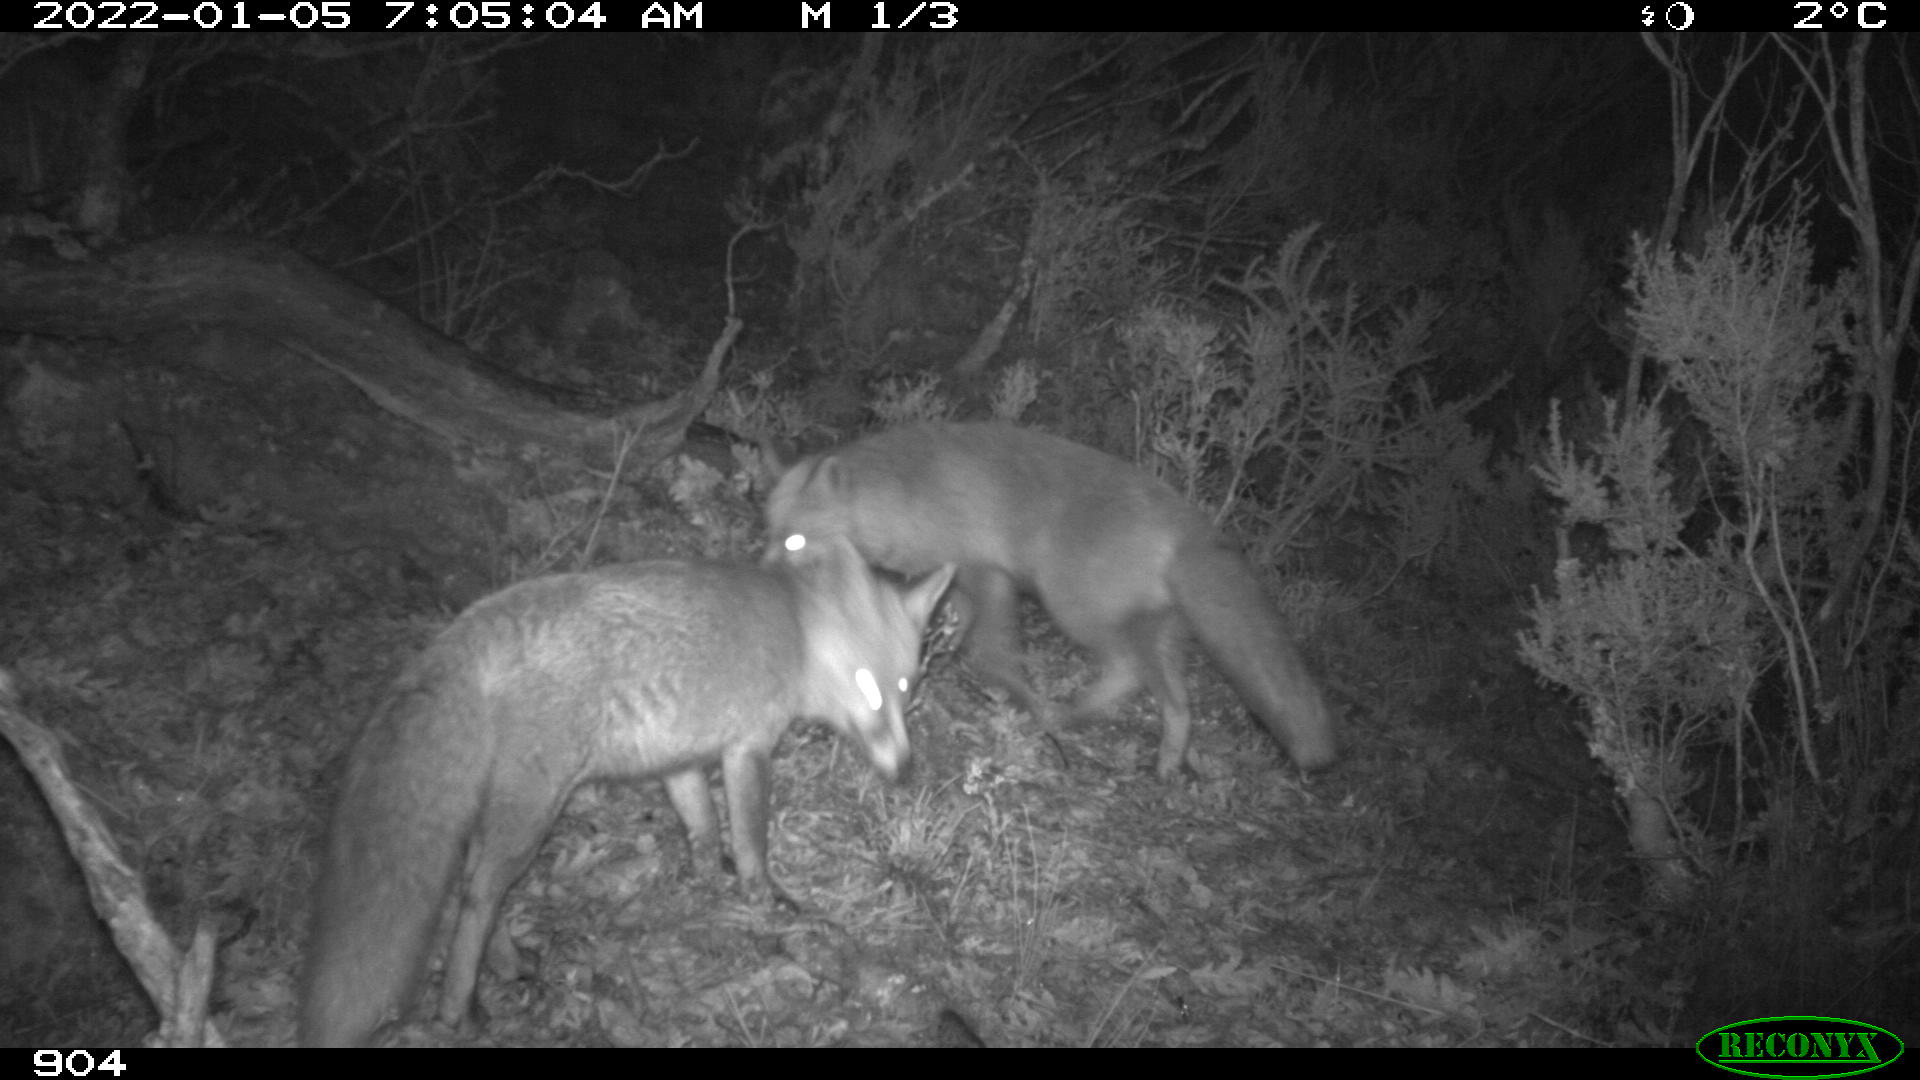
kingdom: Animalia
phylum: Chordata
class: Mammalia
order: Carnivora
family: Canidae
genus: Vulpes
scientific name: Vulpes vulpes
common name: Red fox
